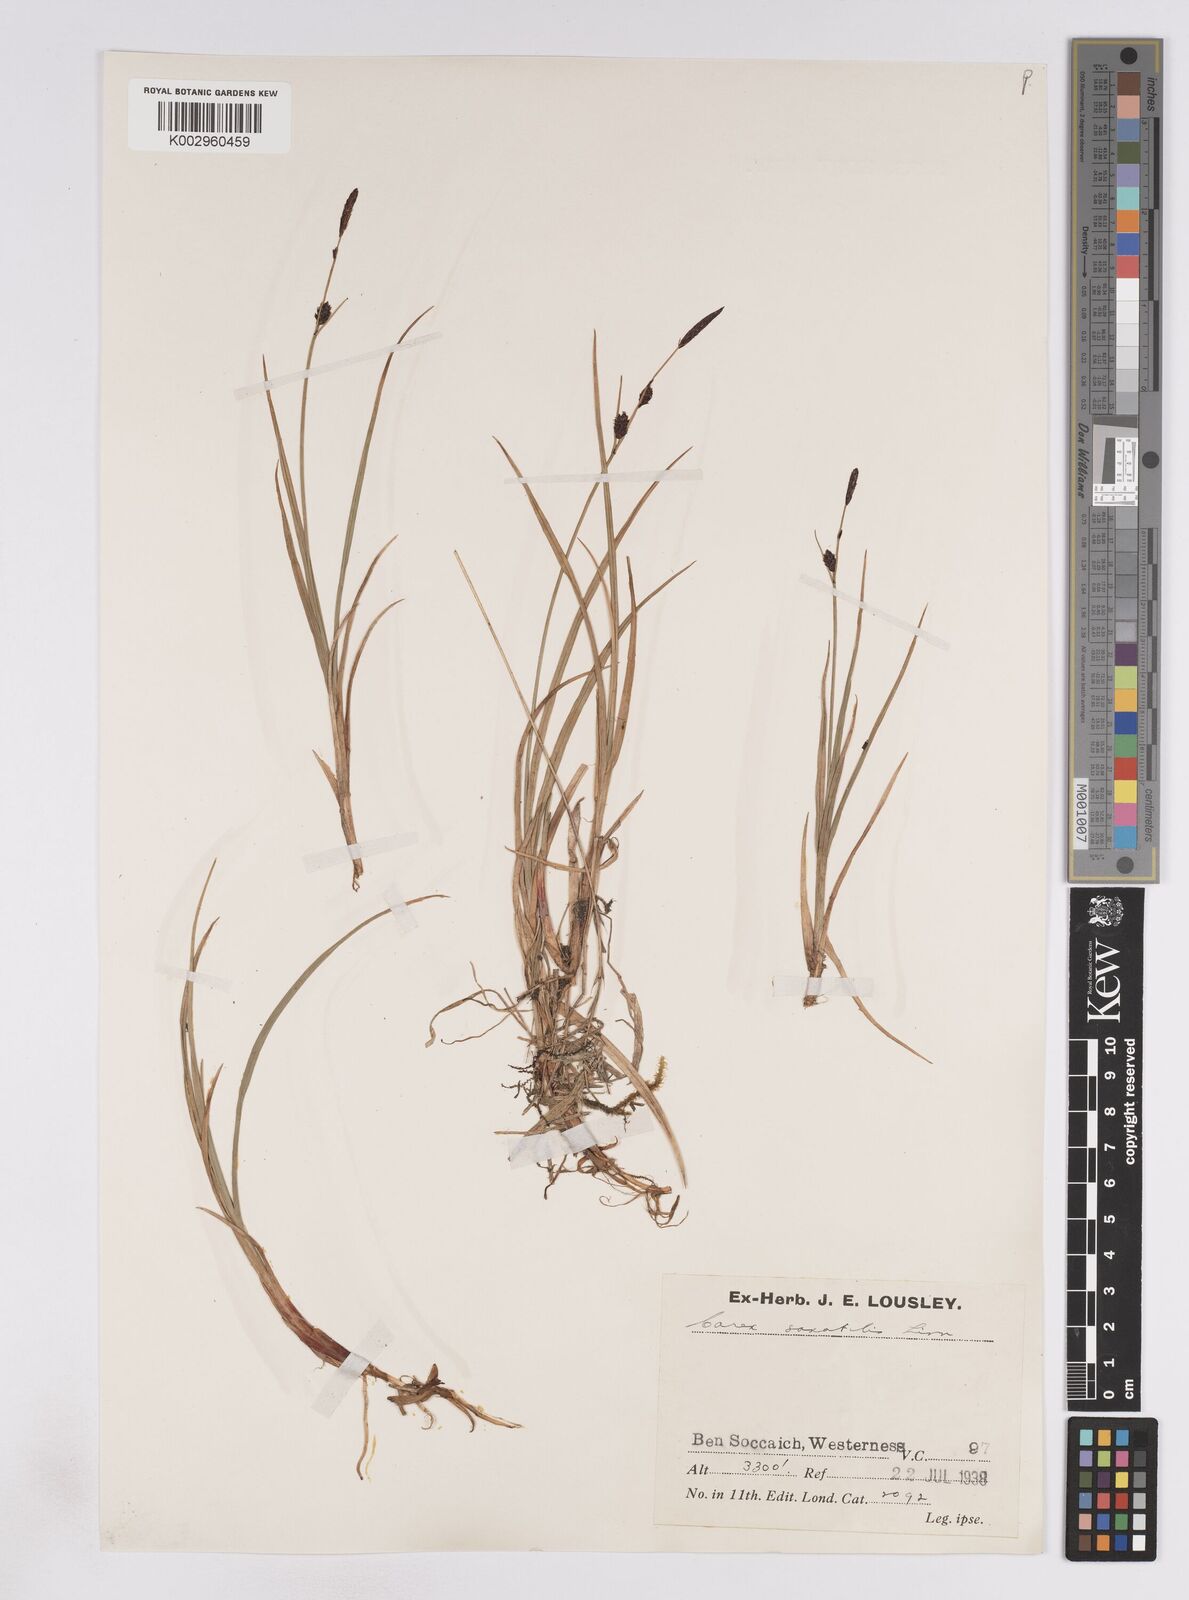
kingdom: Plantae
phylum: Tracheophyta
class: Liliopsida
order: Poales
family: Cyperaceae
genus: Carex
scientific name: Carex saxatilis
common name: Russet sedge
